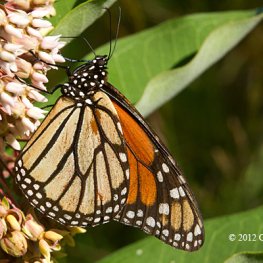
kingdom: Animalia
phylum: Arthropoda
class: Insecta
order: Lepidoptera
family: Nymphalidae
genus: Danaus
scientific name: Danaus plexippus
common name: Monarch
